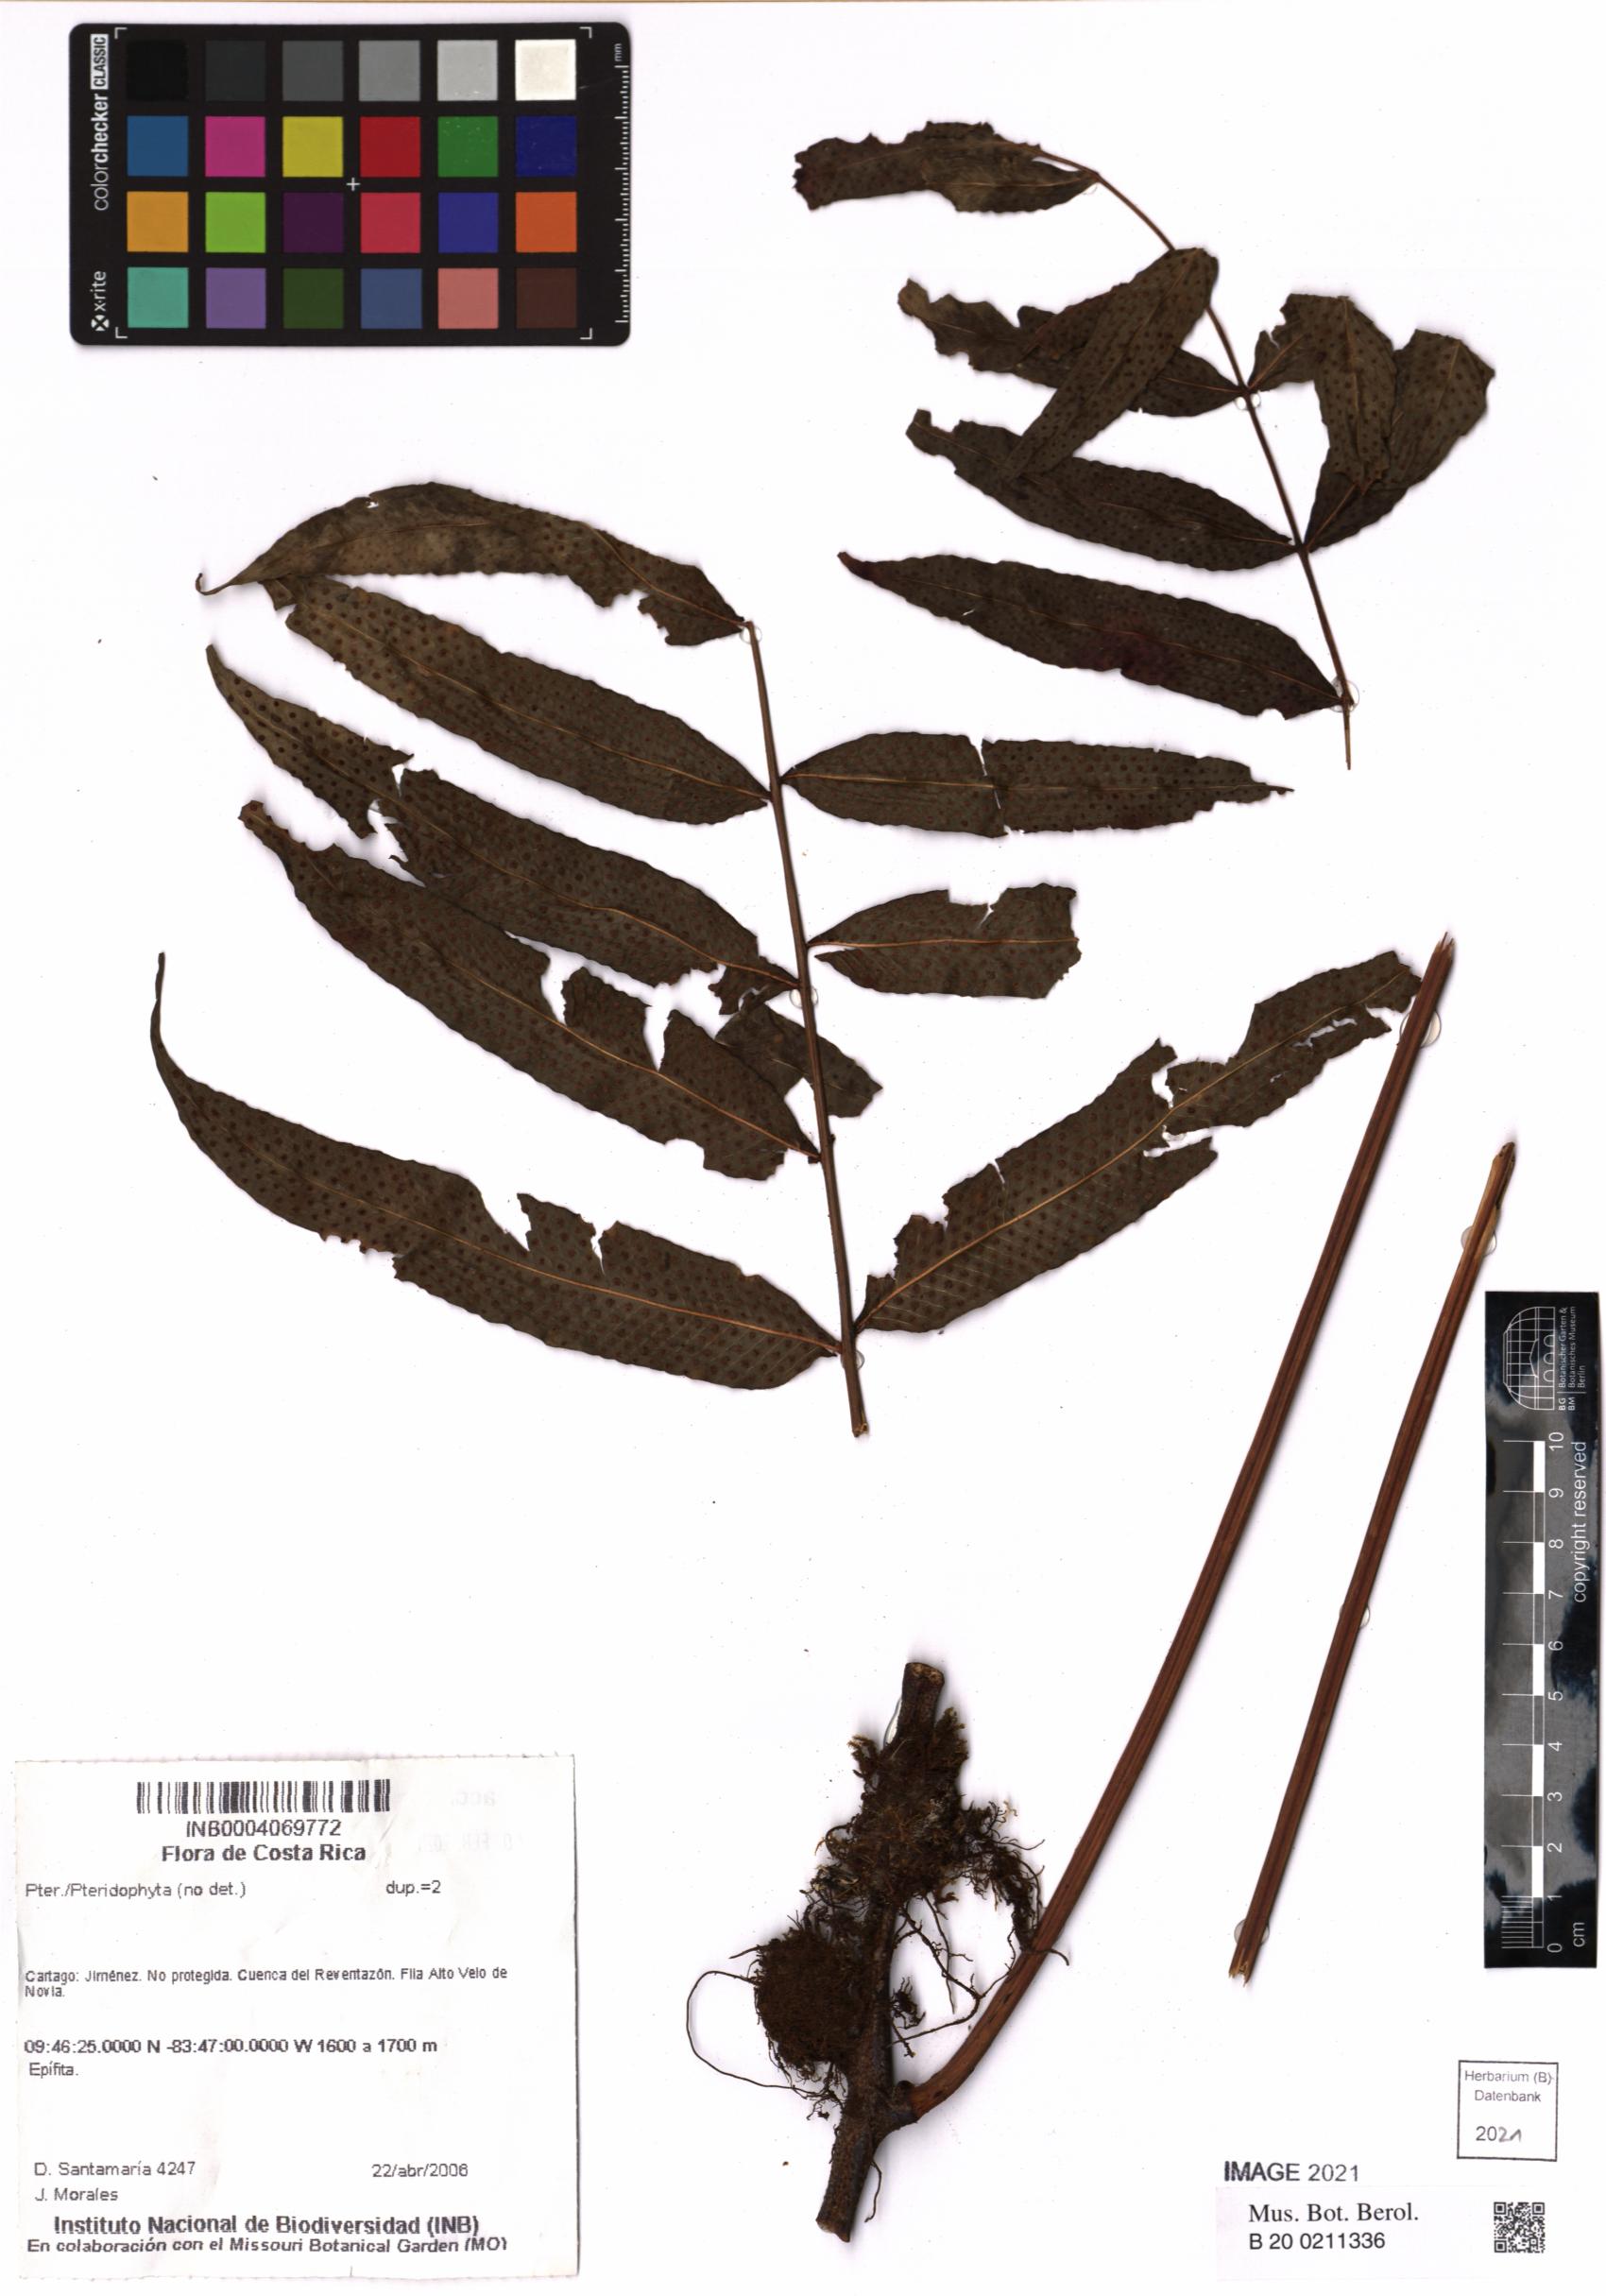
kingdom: Plantae
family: Pteridophyta
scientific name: Pteridophyta
